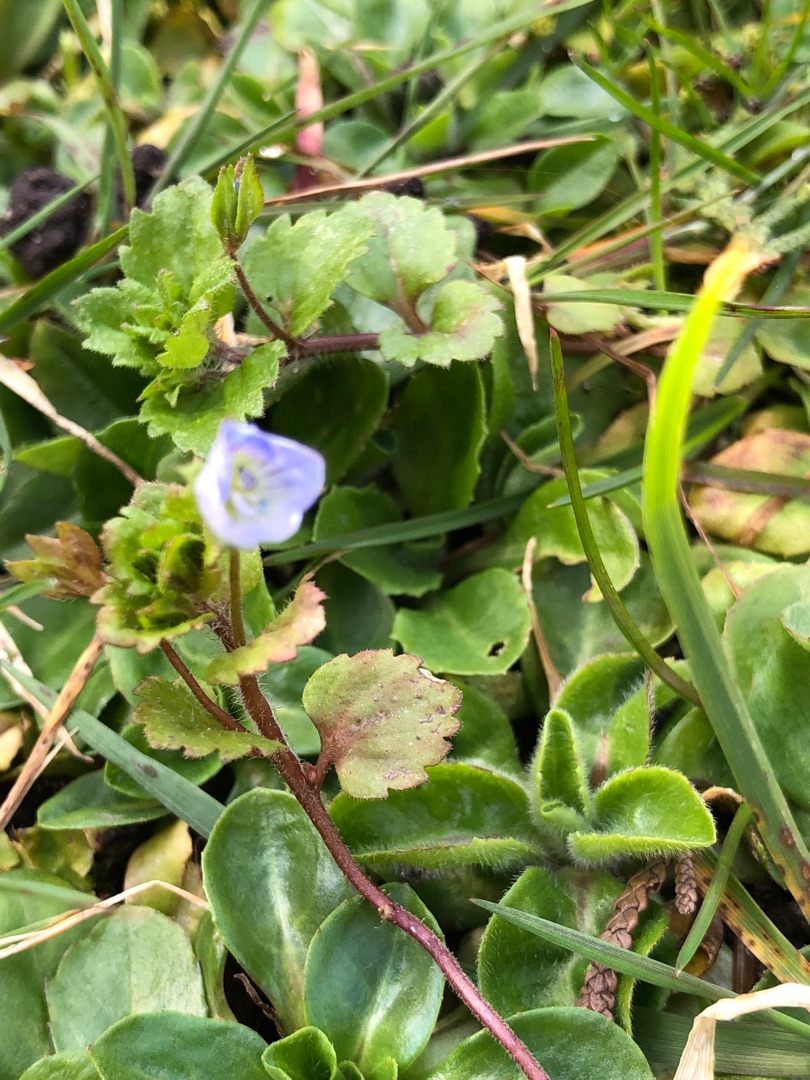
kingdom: Plantae
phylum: Tracheophyta
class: Magnoliopsida
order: Lamiales
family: Plantaginaceae
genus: Veronica
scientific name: Veronica persica
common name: Storkronet ærenpris
